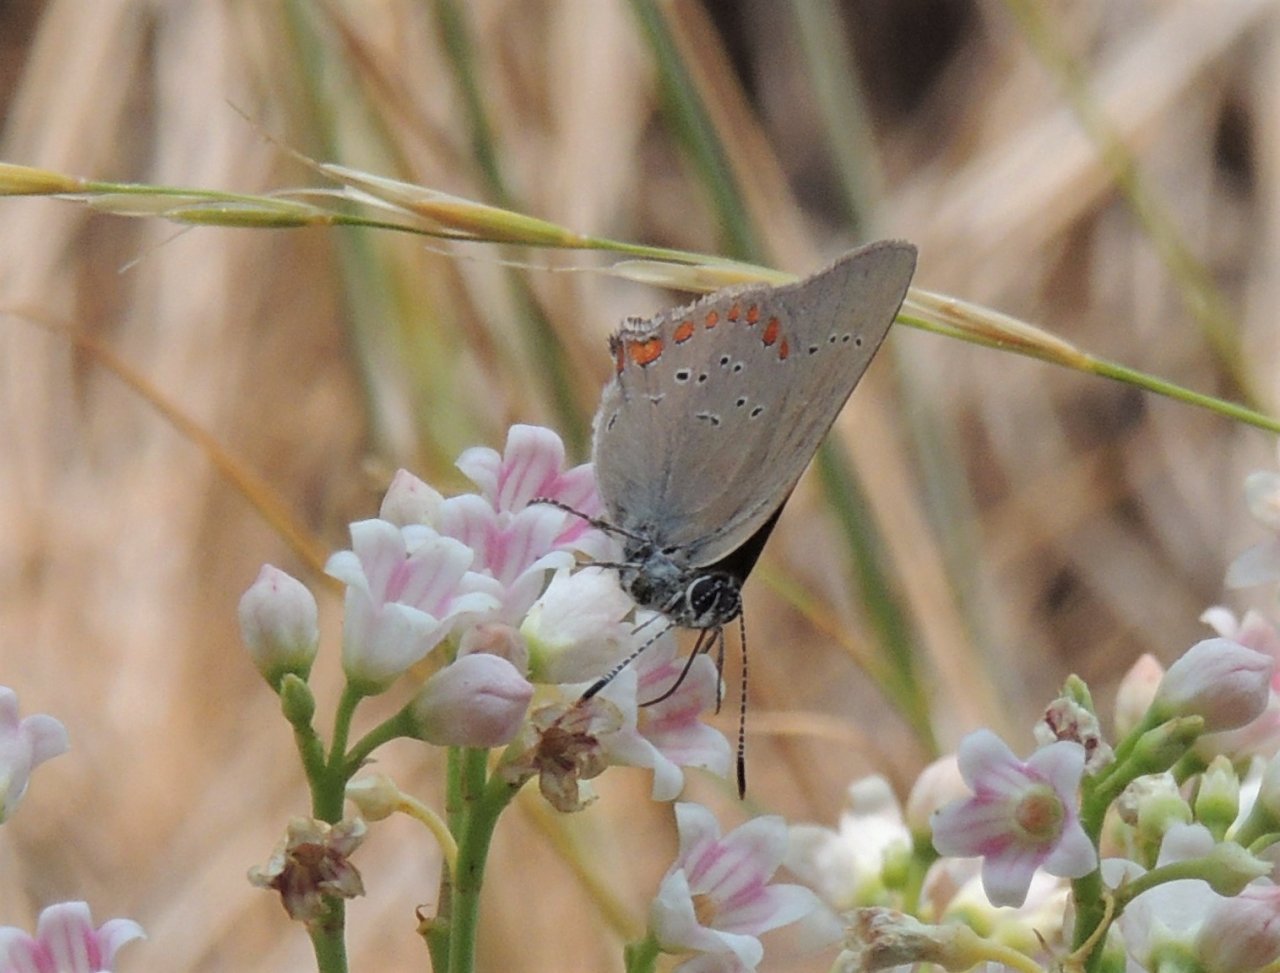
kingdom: Animalia
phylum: Arthropoda
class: Insecta
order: Lepidoptera
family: Lycaenidae
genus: Harkenclenus
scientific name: Harkenclenus titus
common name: Coral Hairstreak
